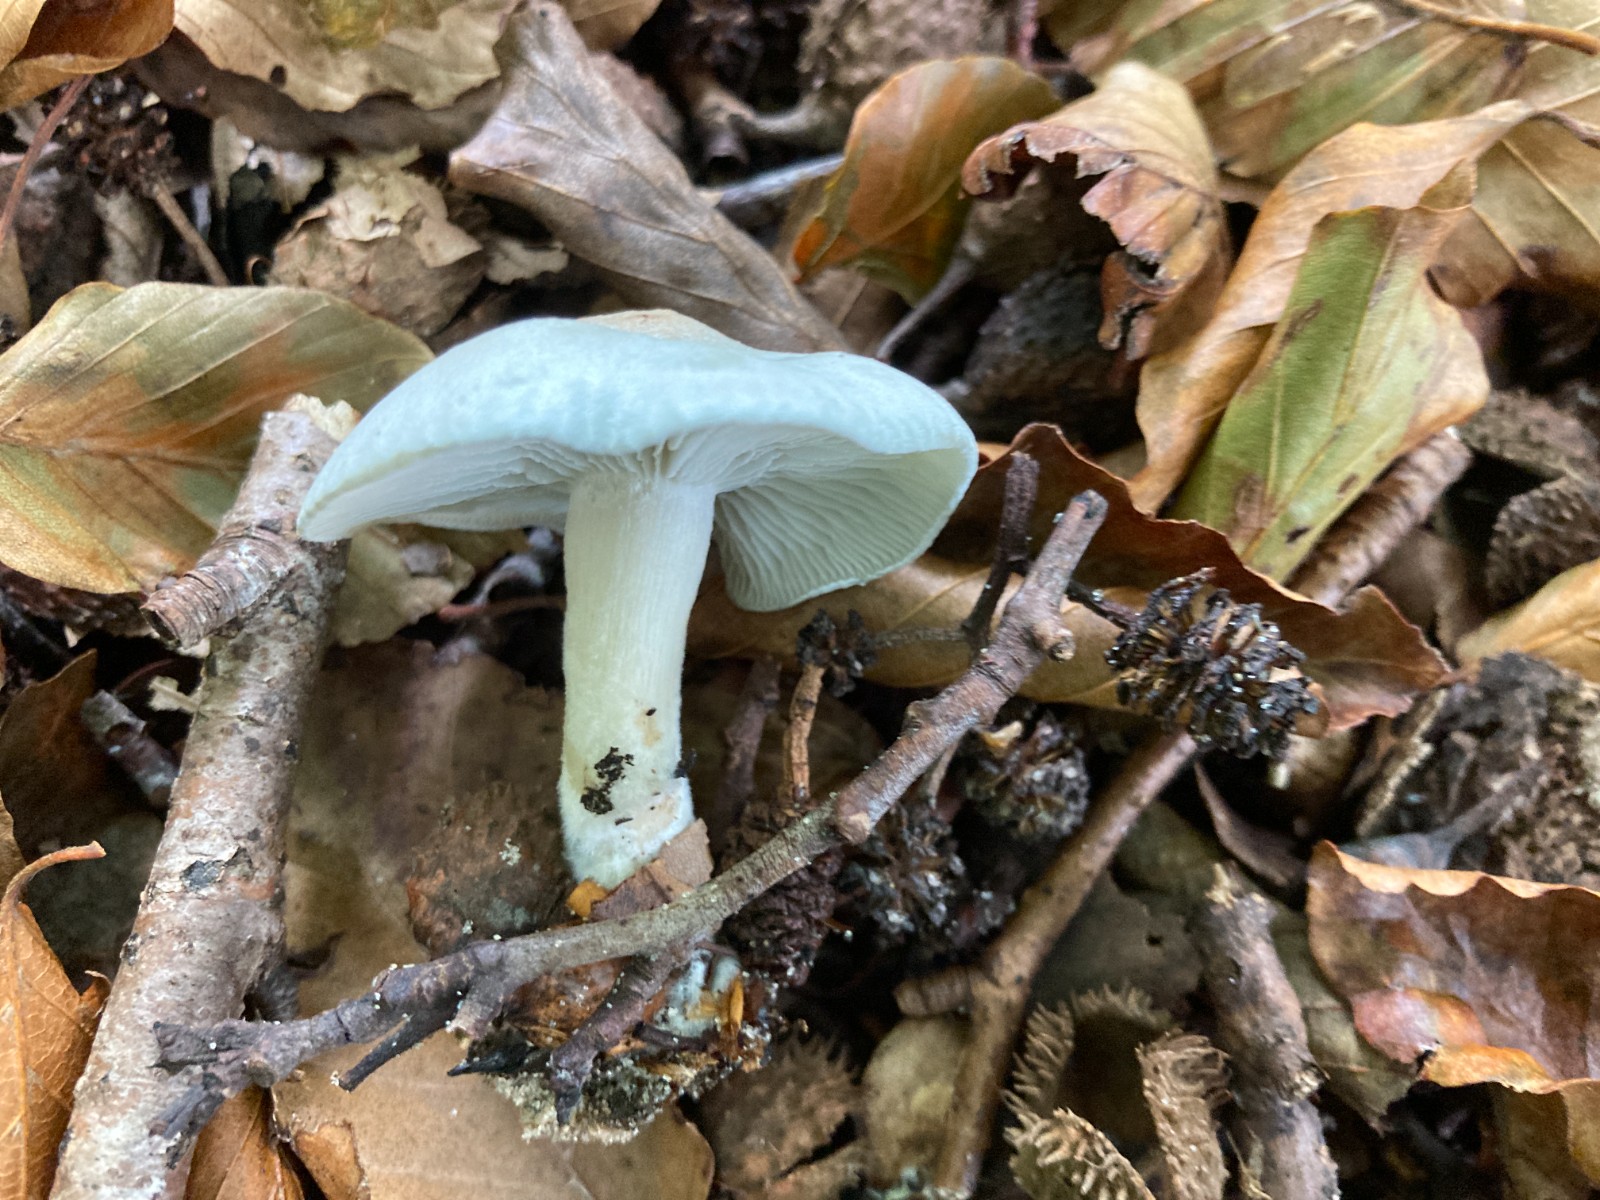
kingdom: Fungi
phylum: Basidiomycota
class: Agaricomycetes
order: Agaricales
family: Tricholomataceae
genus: Clitocybe
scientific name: Clitocybe odora
